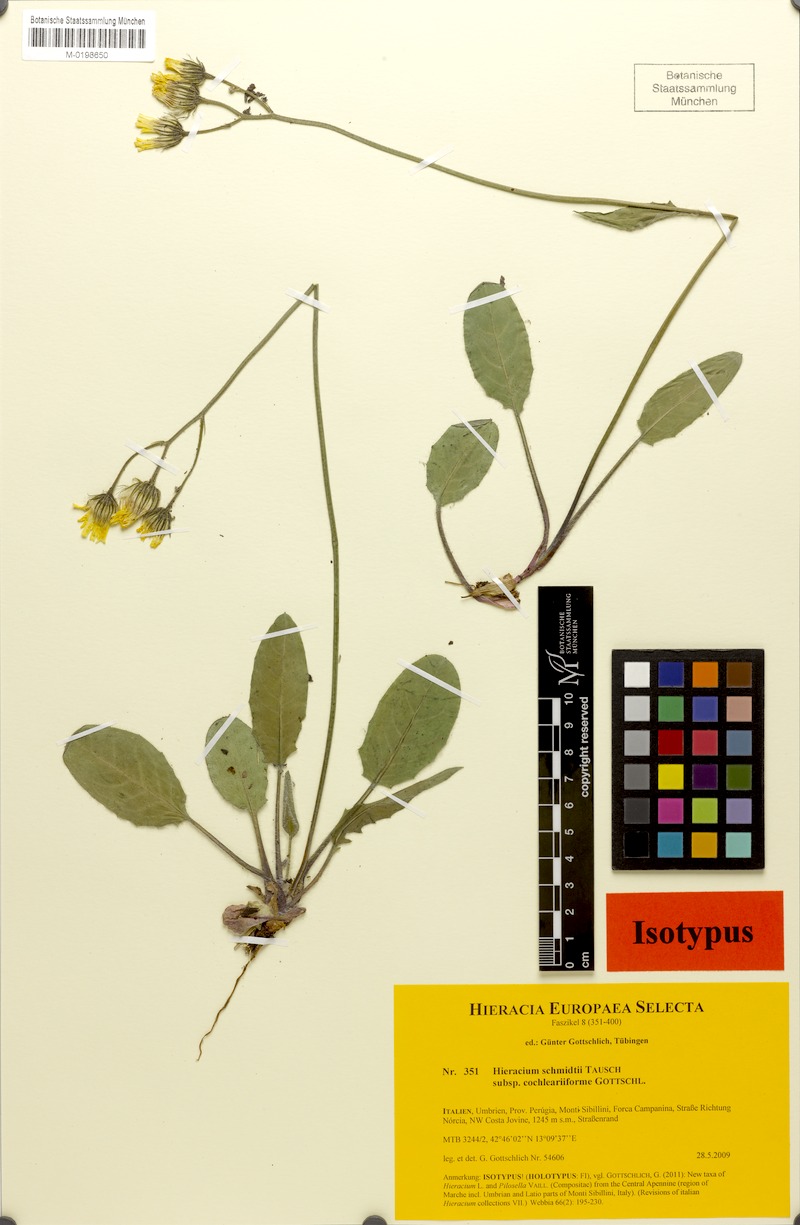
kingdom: Plantae
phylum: Tracheophyta
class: Magnoliopsida
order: Asterales
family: Asteraceae
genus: Hieracium
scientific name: Hieracium schmidtii
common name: Schmidt's hawkweed
